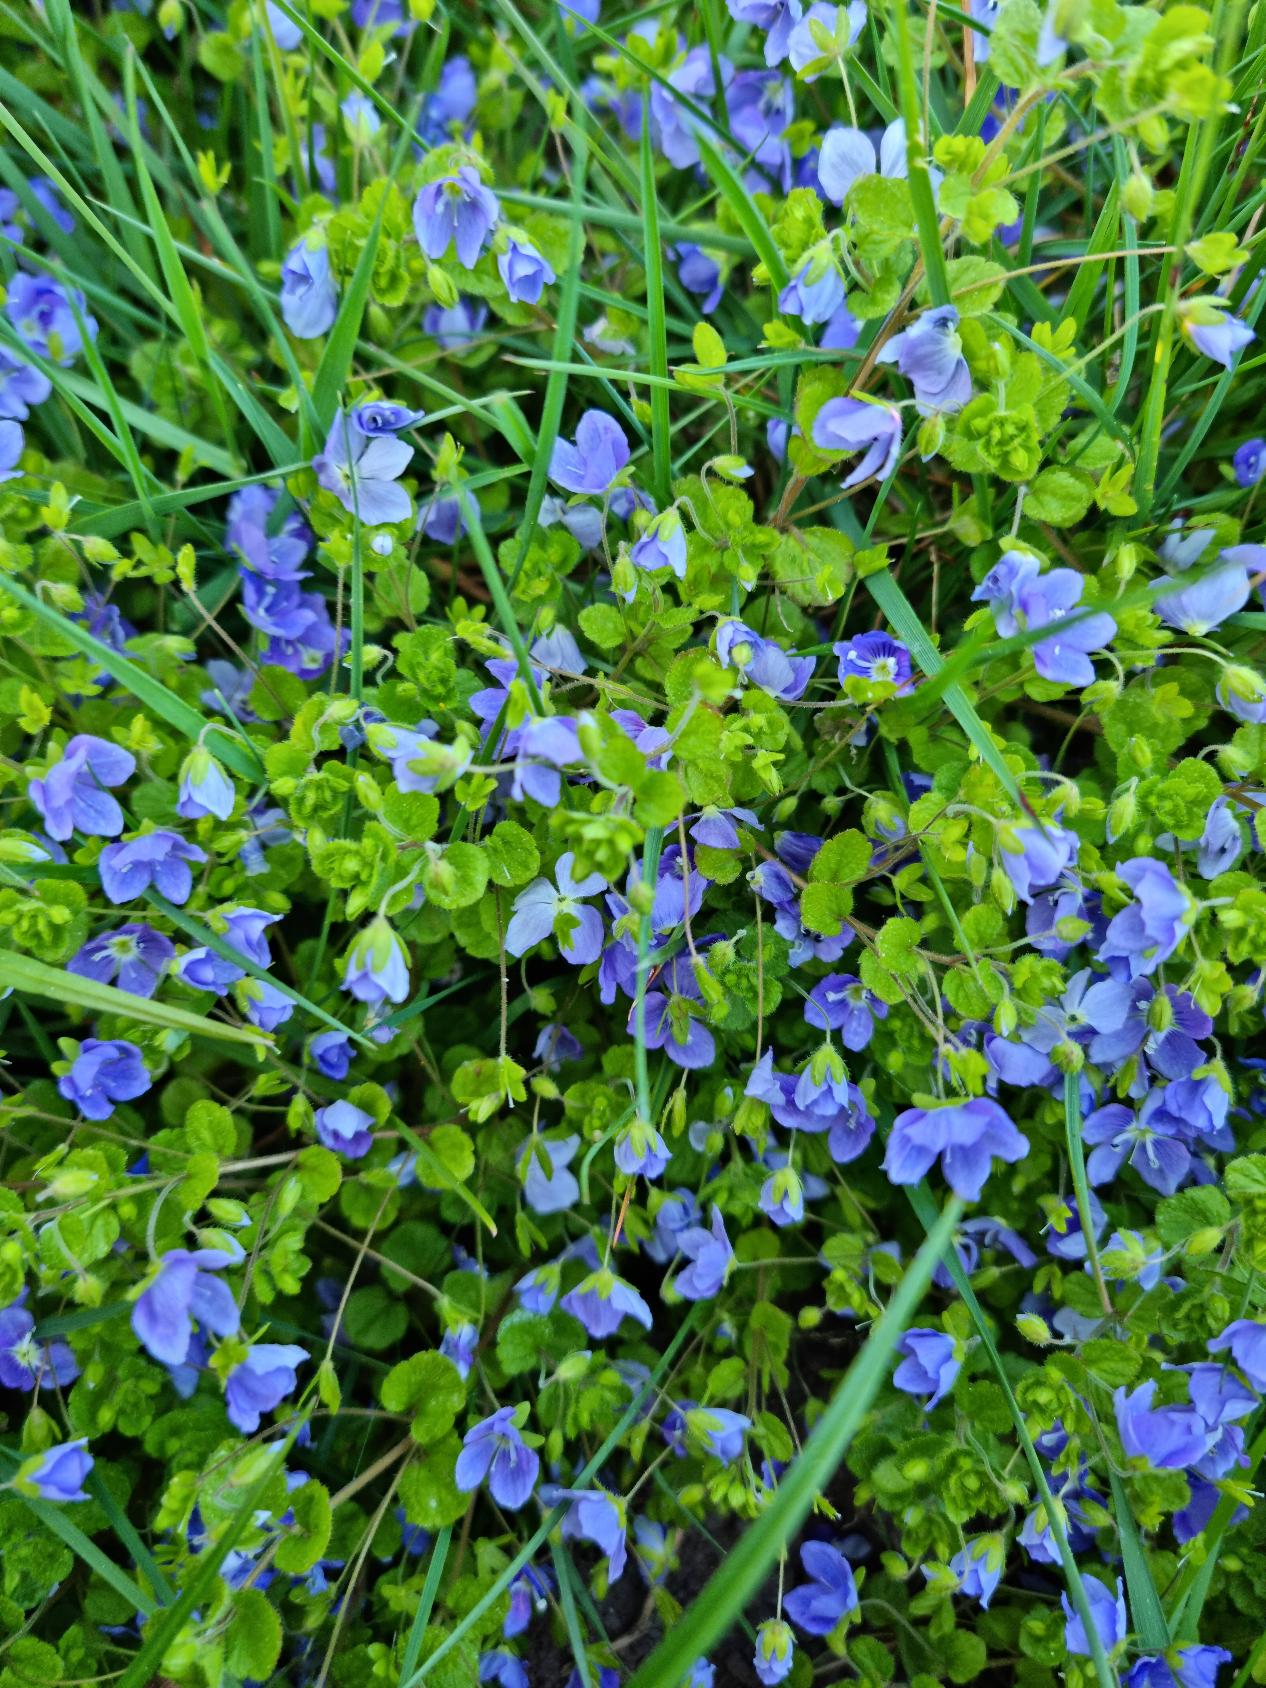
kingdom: Plantae
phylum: Tracheophyta
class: Magnoliopsida
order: Lamiales
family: Plantaginaceae
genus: Veronica
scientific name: Veronica filiformis
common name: Tråd-ærenpris
